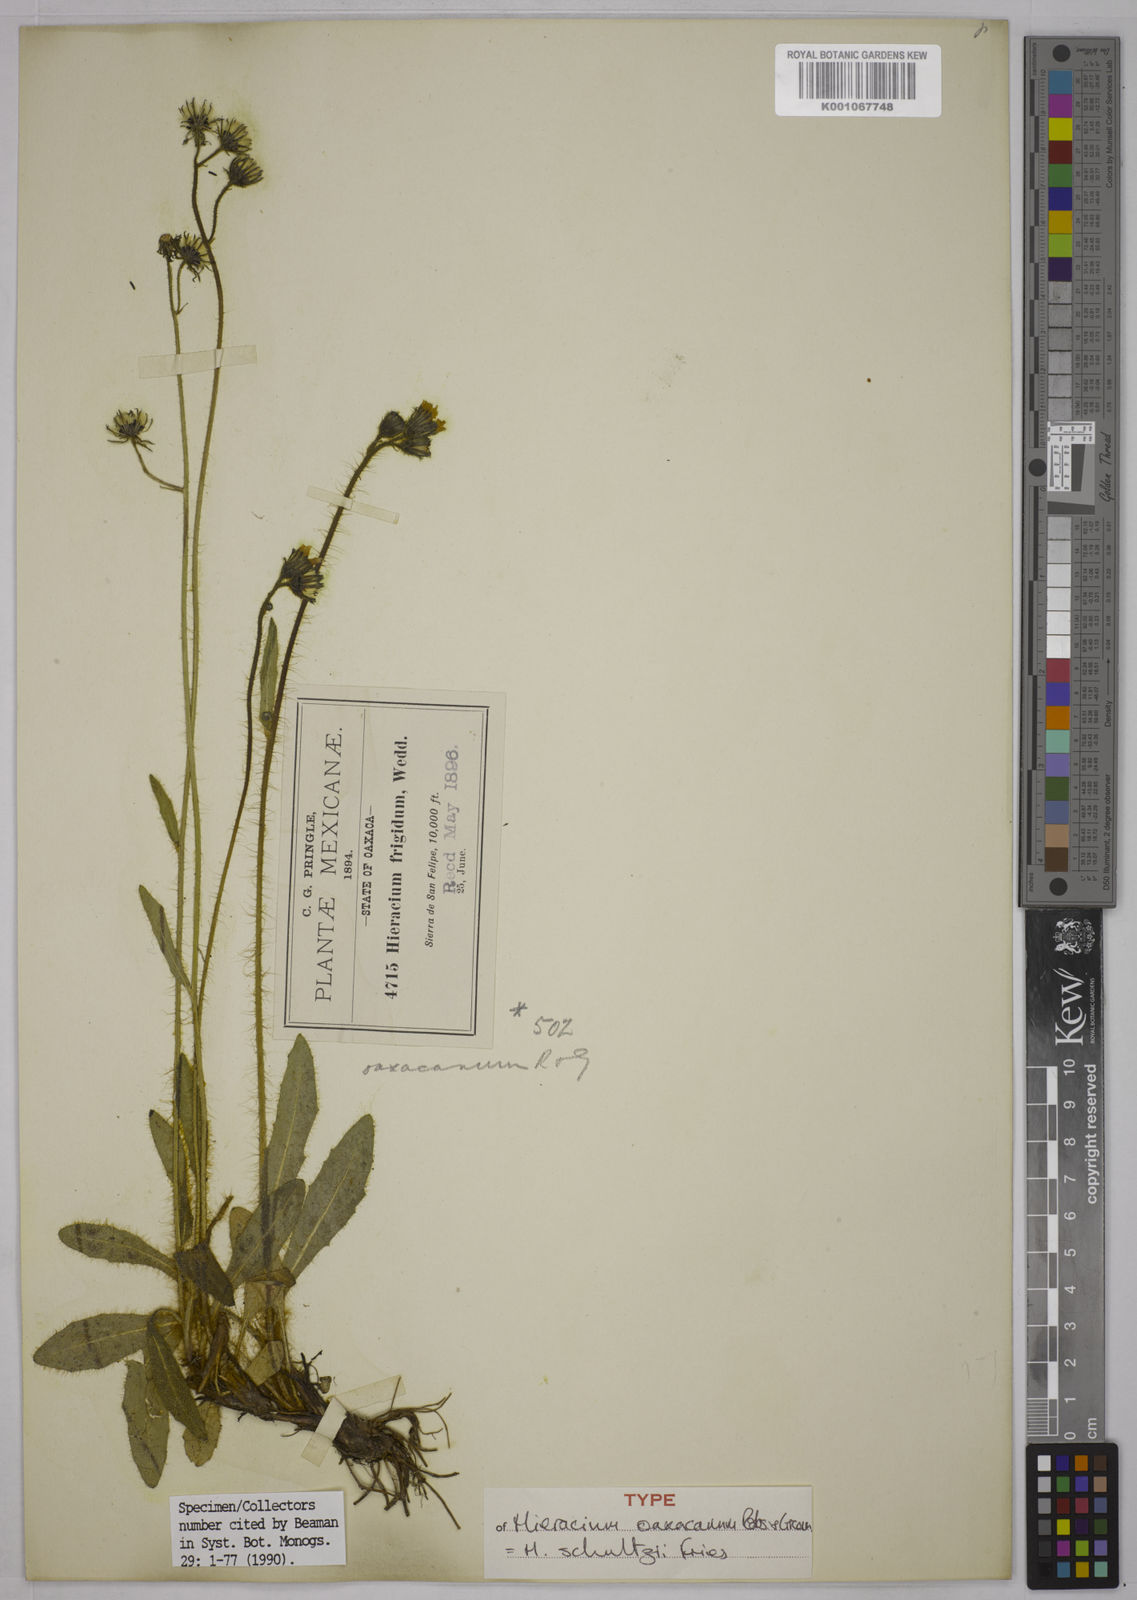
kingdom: Plantae
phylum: Tracheophyta
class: Magnoliopsida
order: Asterales
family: Asteraceae
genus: Hieracium
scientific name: Hieracium friesii
